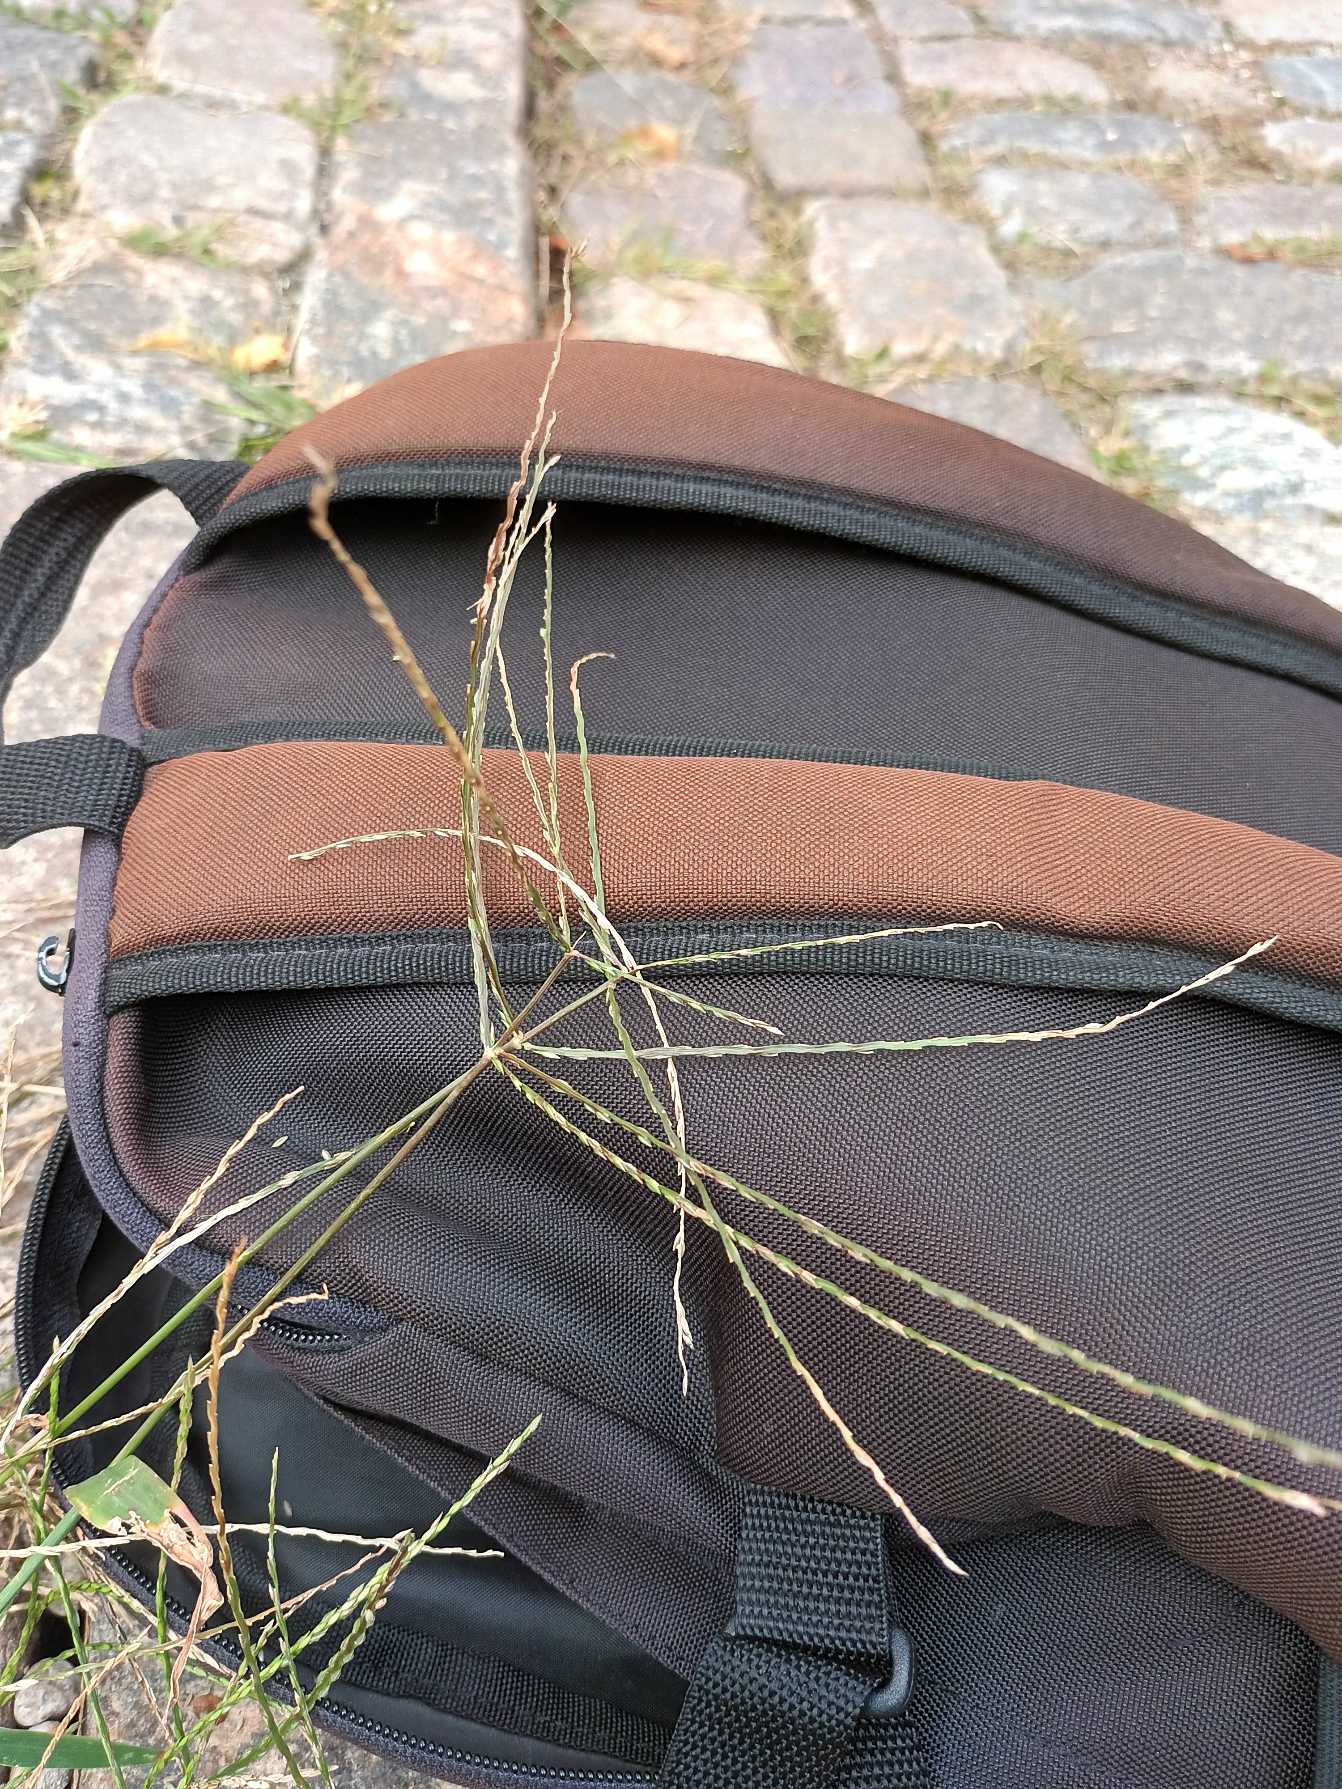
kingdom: Plantae
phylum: Tracheophyta
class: Liliopsida
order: Poales
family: Poaceae
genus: Digitaria
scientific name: Digitaria sanguinalis
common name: Blodhirse
